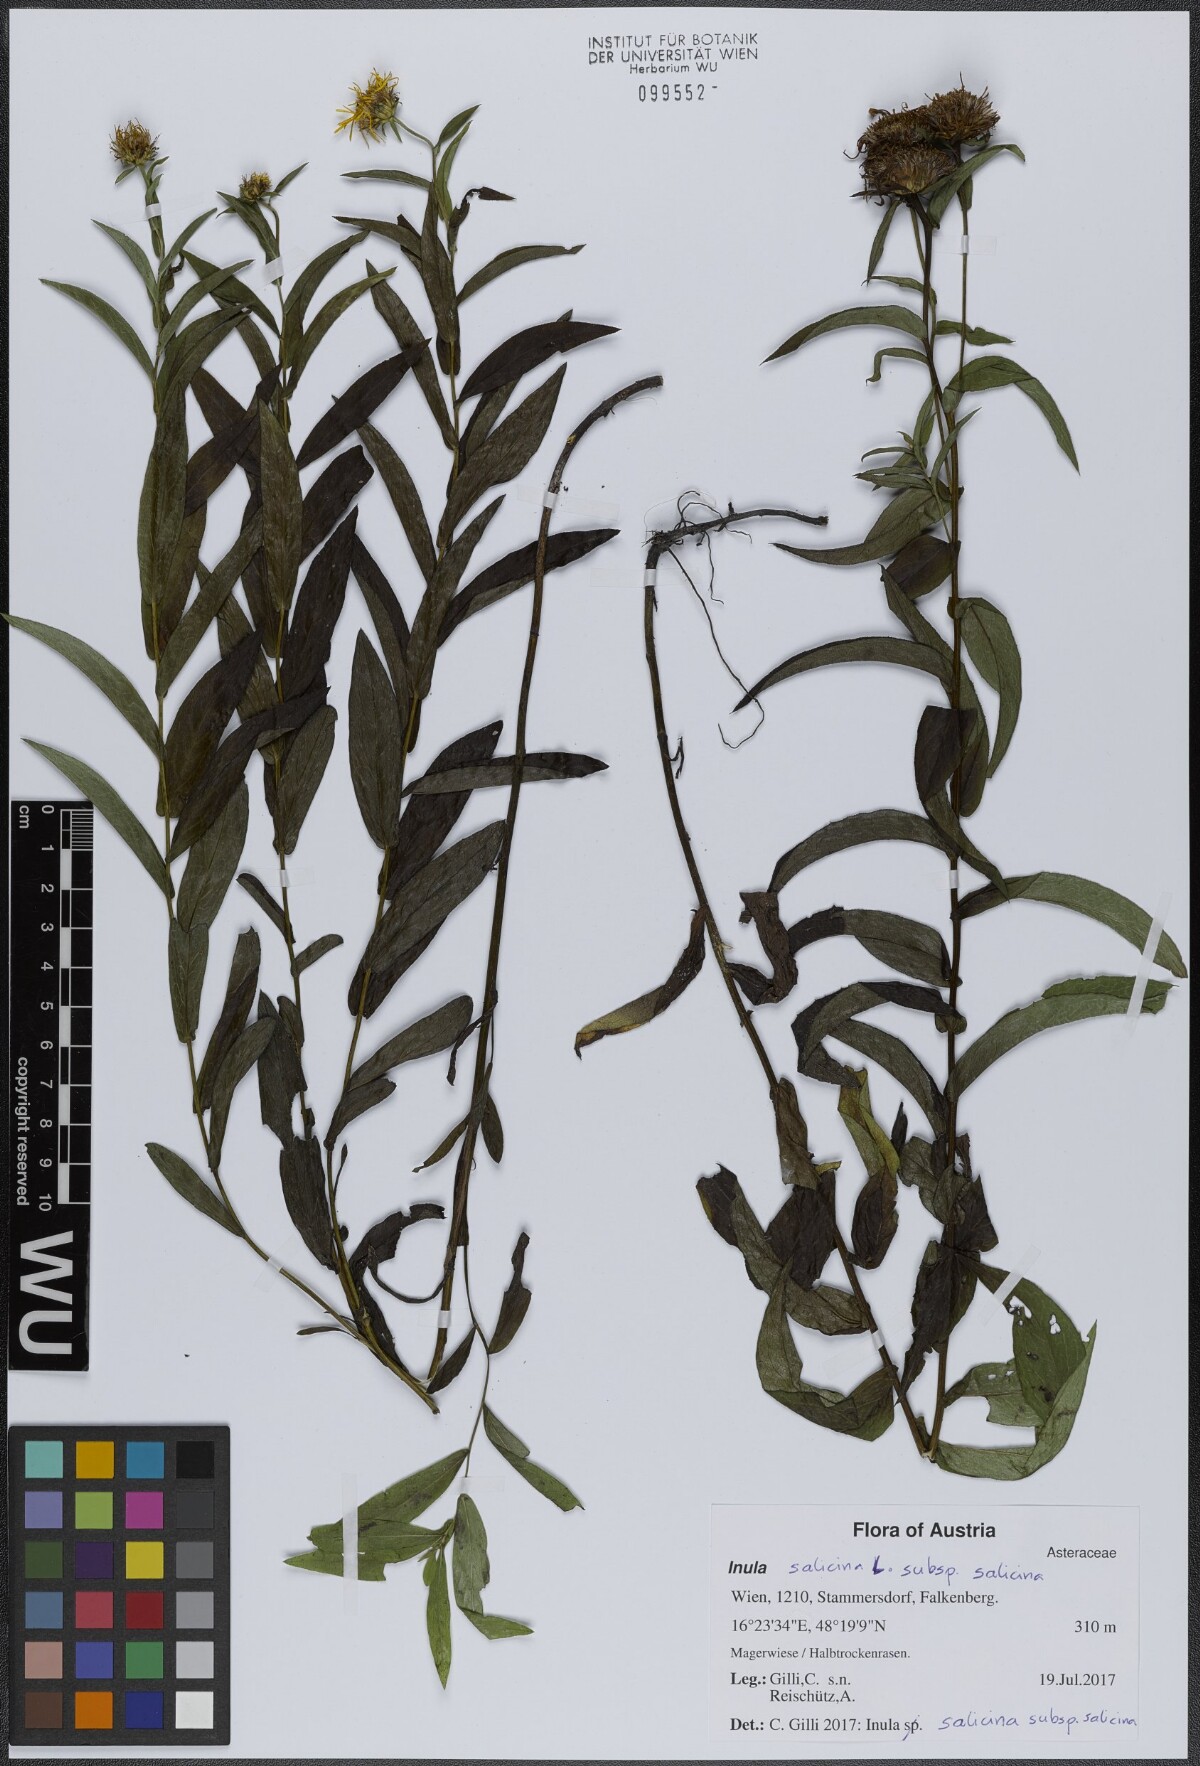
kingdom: Plantae
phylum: Tracheophyta
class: Magnoliopsida
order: Asterales
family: Asteraceae
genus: Pentanema
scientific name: Pentanema salicinum
